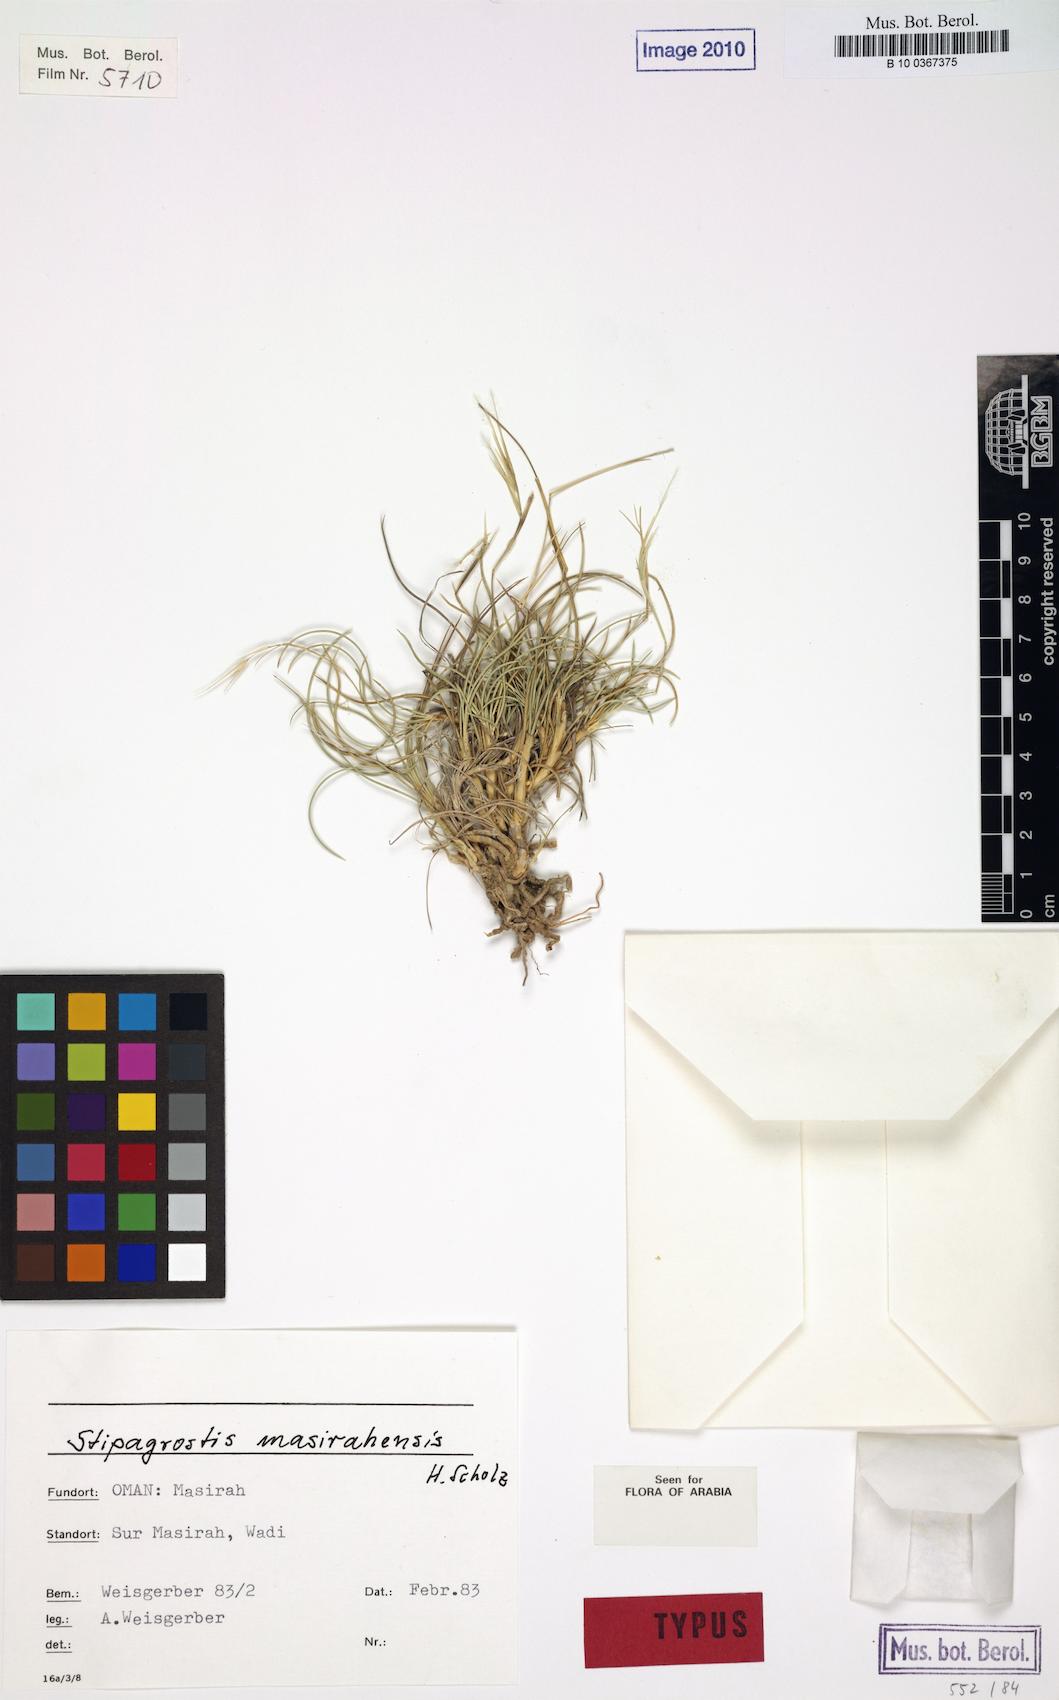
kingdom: Plantae
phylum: Tracheophyta
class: Liliopsida
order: Poales
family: Poaceae
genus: Stipagrostis
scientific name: Stipagrostis masirahensis
